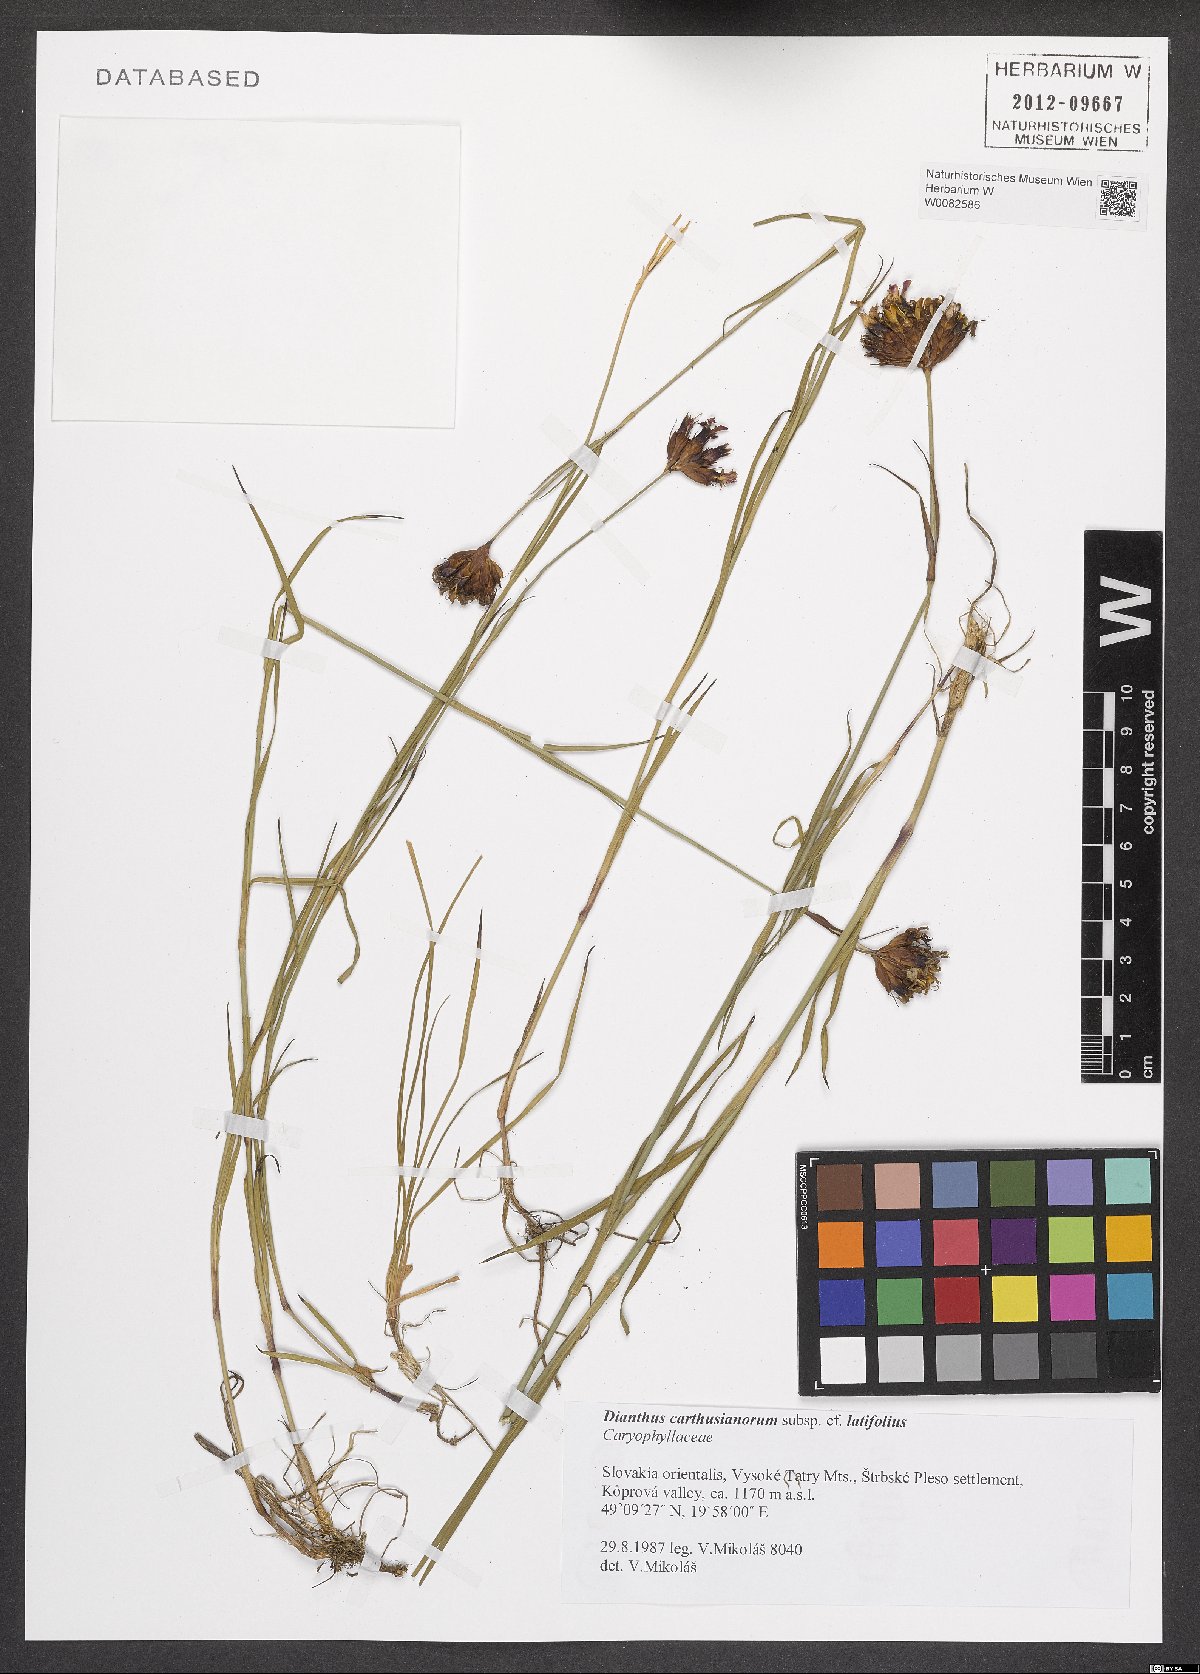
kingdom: Plantae
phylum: Tracheophyta
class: Magnoliopsida
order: Caryophyllales
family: Caryophyllaceae
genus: Dianthus
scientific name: Dianthus carthusianorum
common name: Carthusian pink
